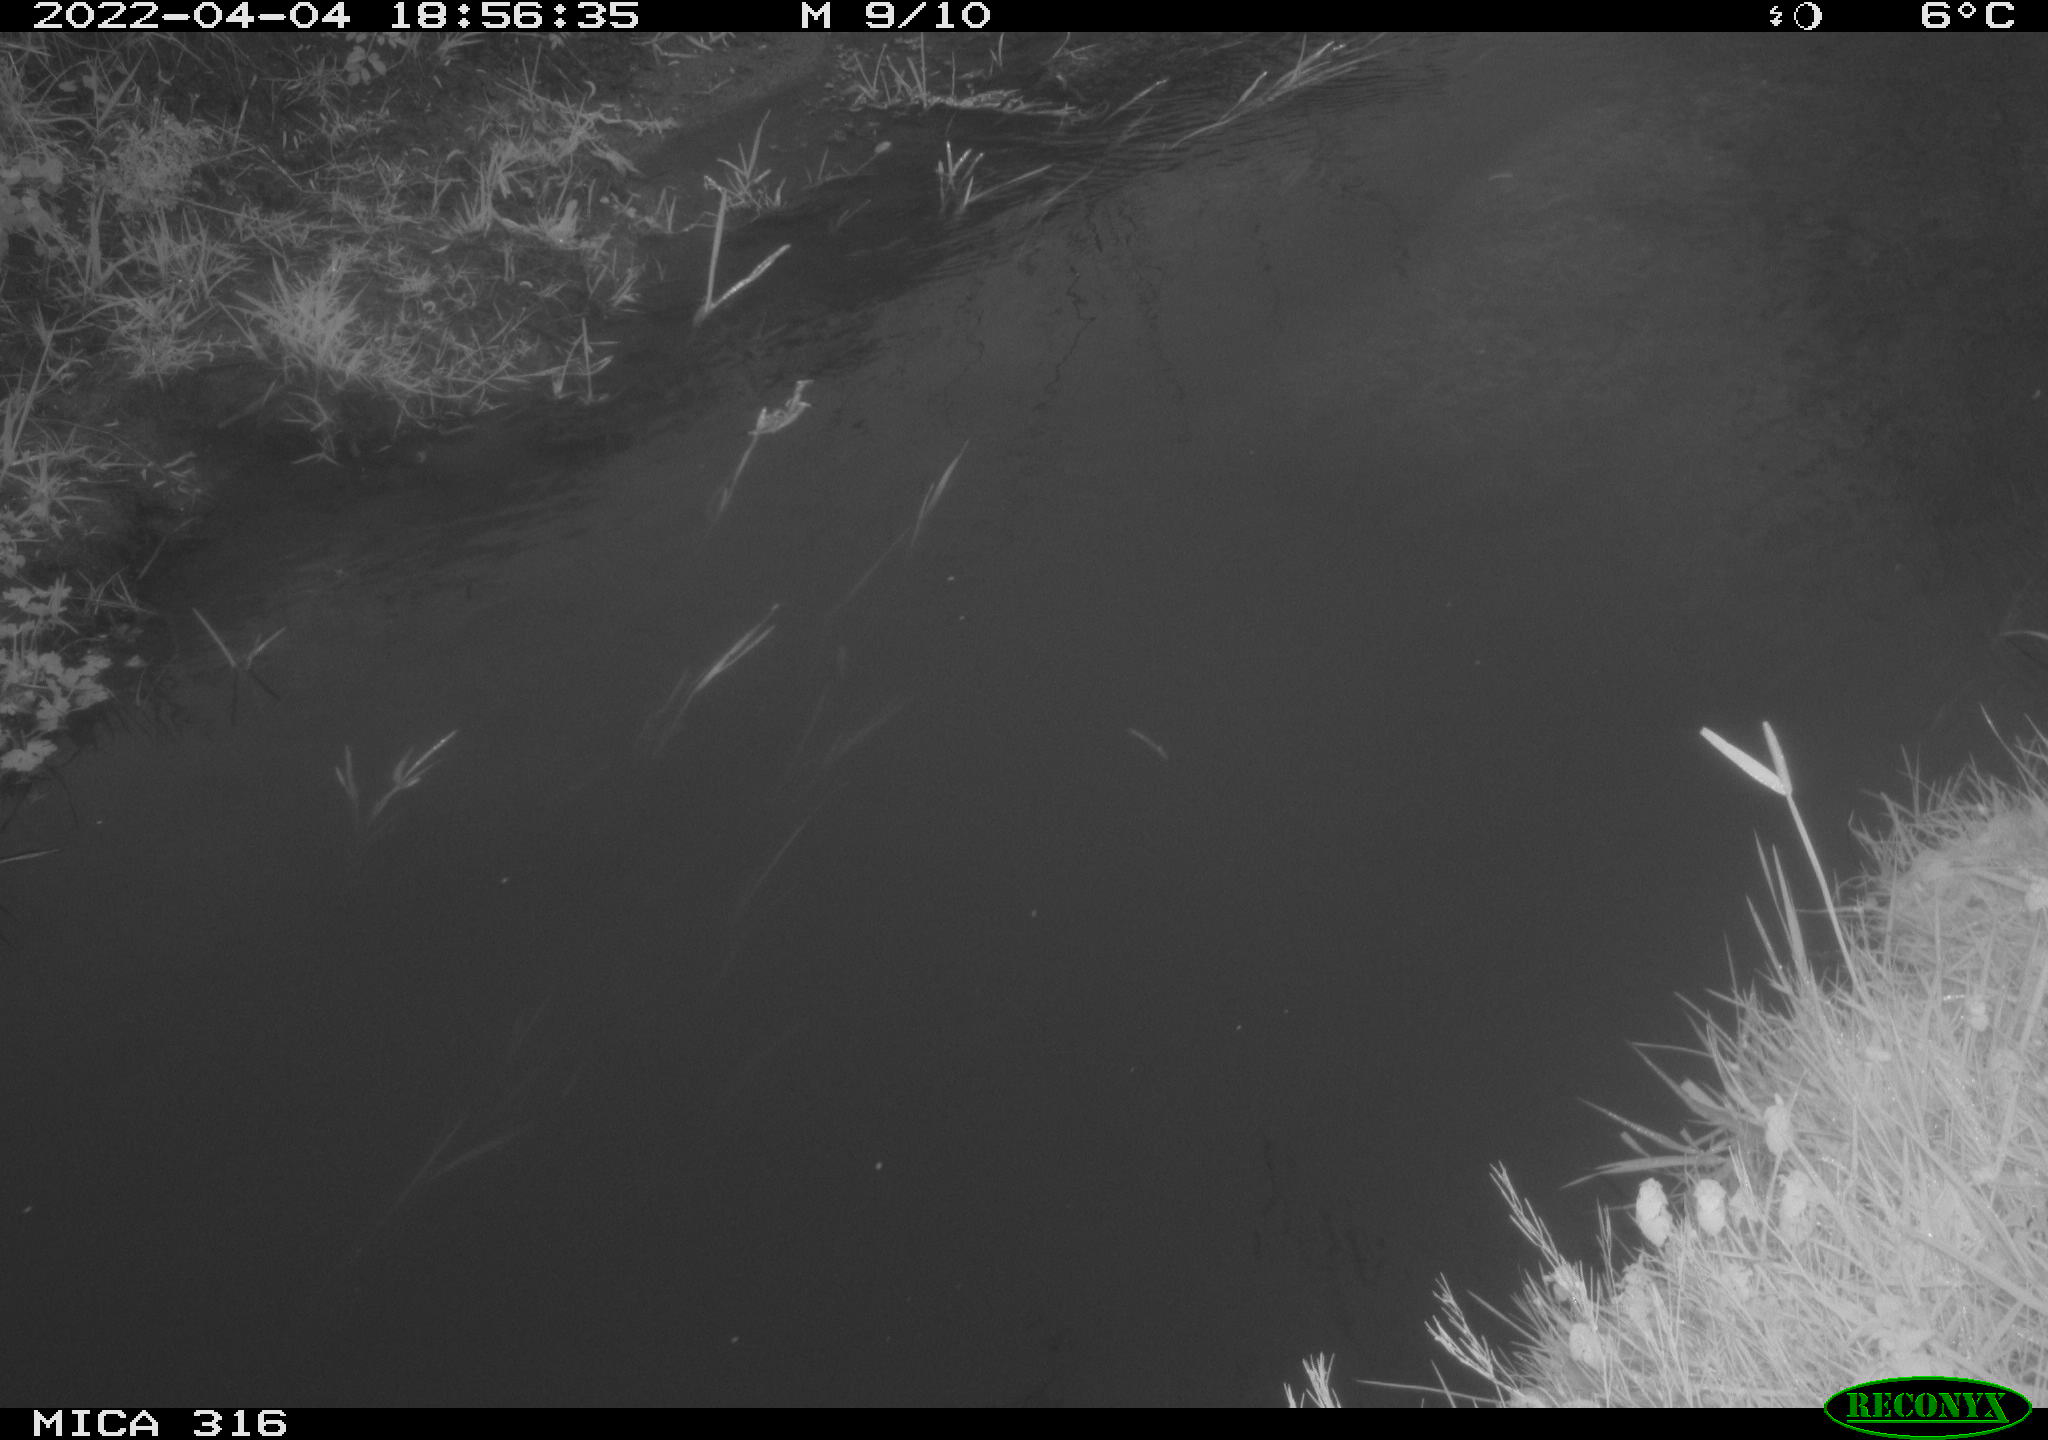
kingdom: Animalia
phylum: Chordata
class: Aves
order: Anseriformes
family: Anatidae
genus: Anas
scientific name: Anas platyrhynchos
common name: Mallard
